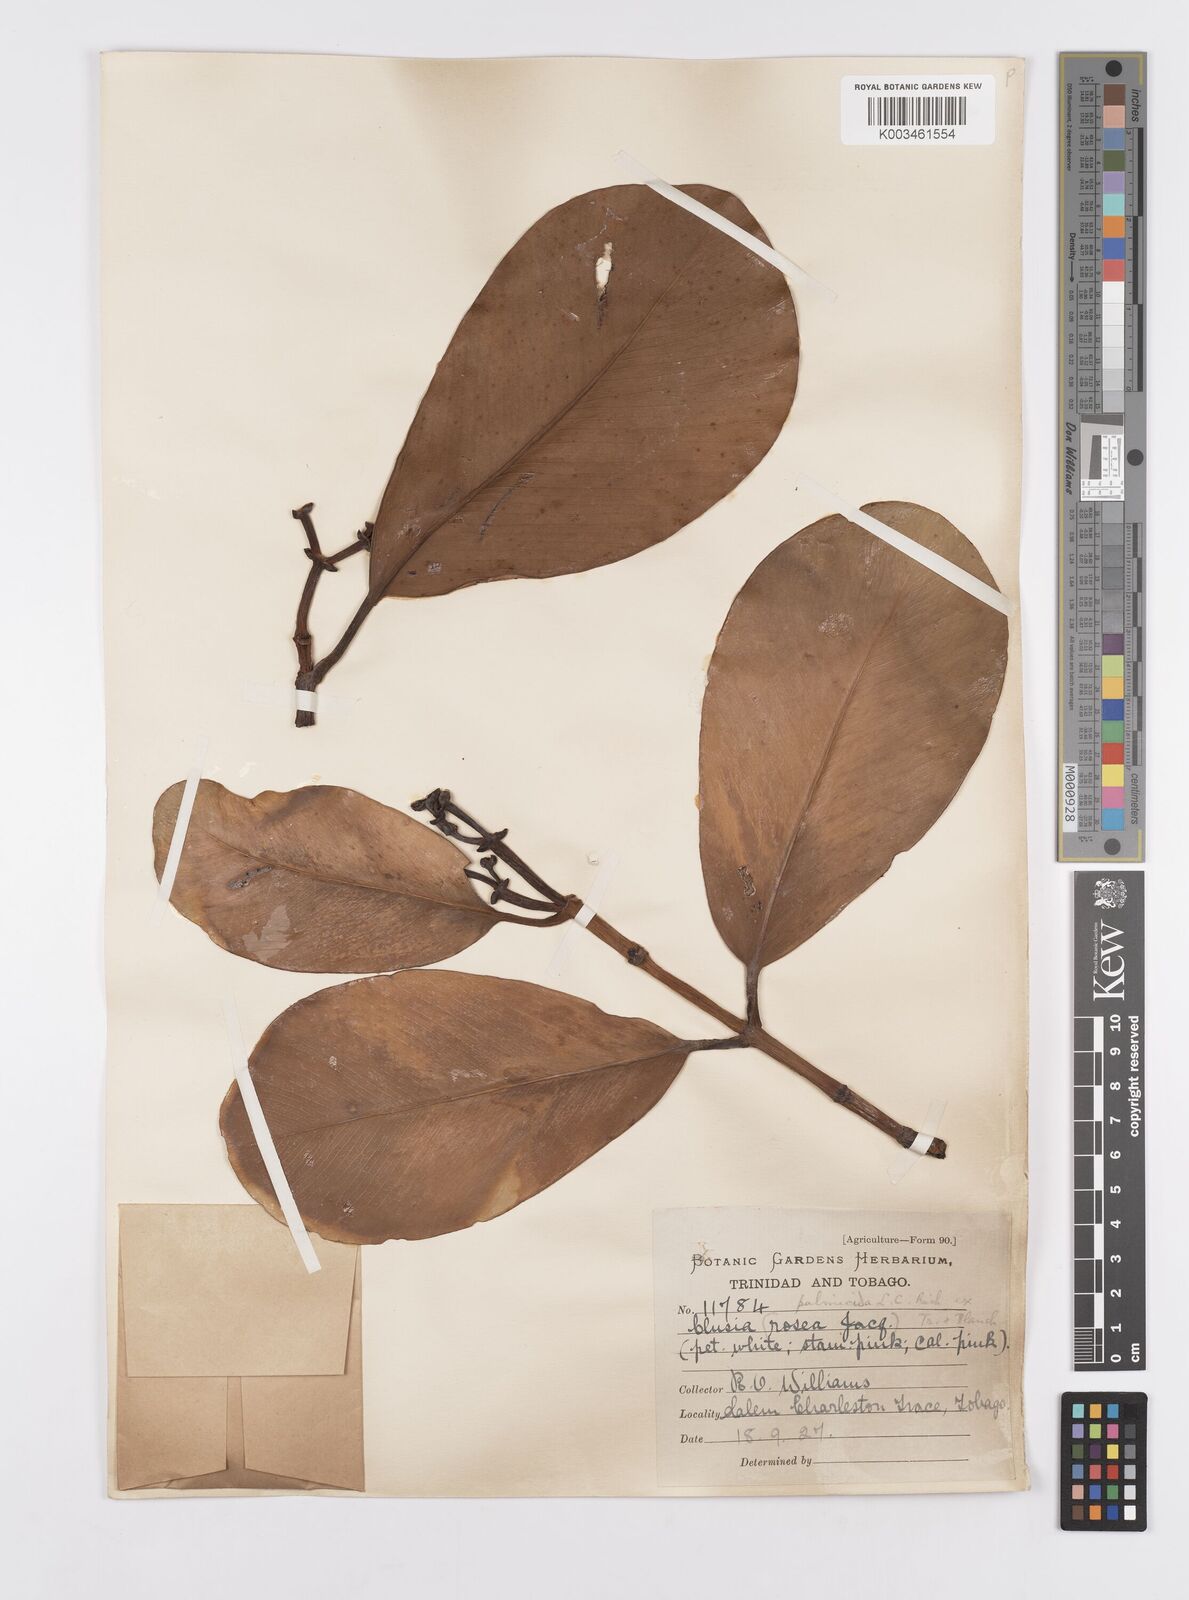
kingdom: Plantae
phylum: Tracheophyta
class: Magnoliopsida
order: Malpighiales
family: Clusiaceae
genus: Clusia
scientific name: Clusia palmicida
